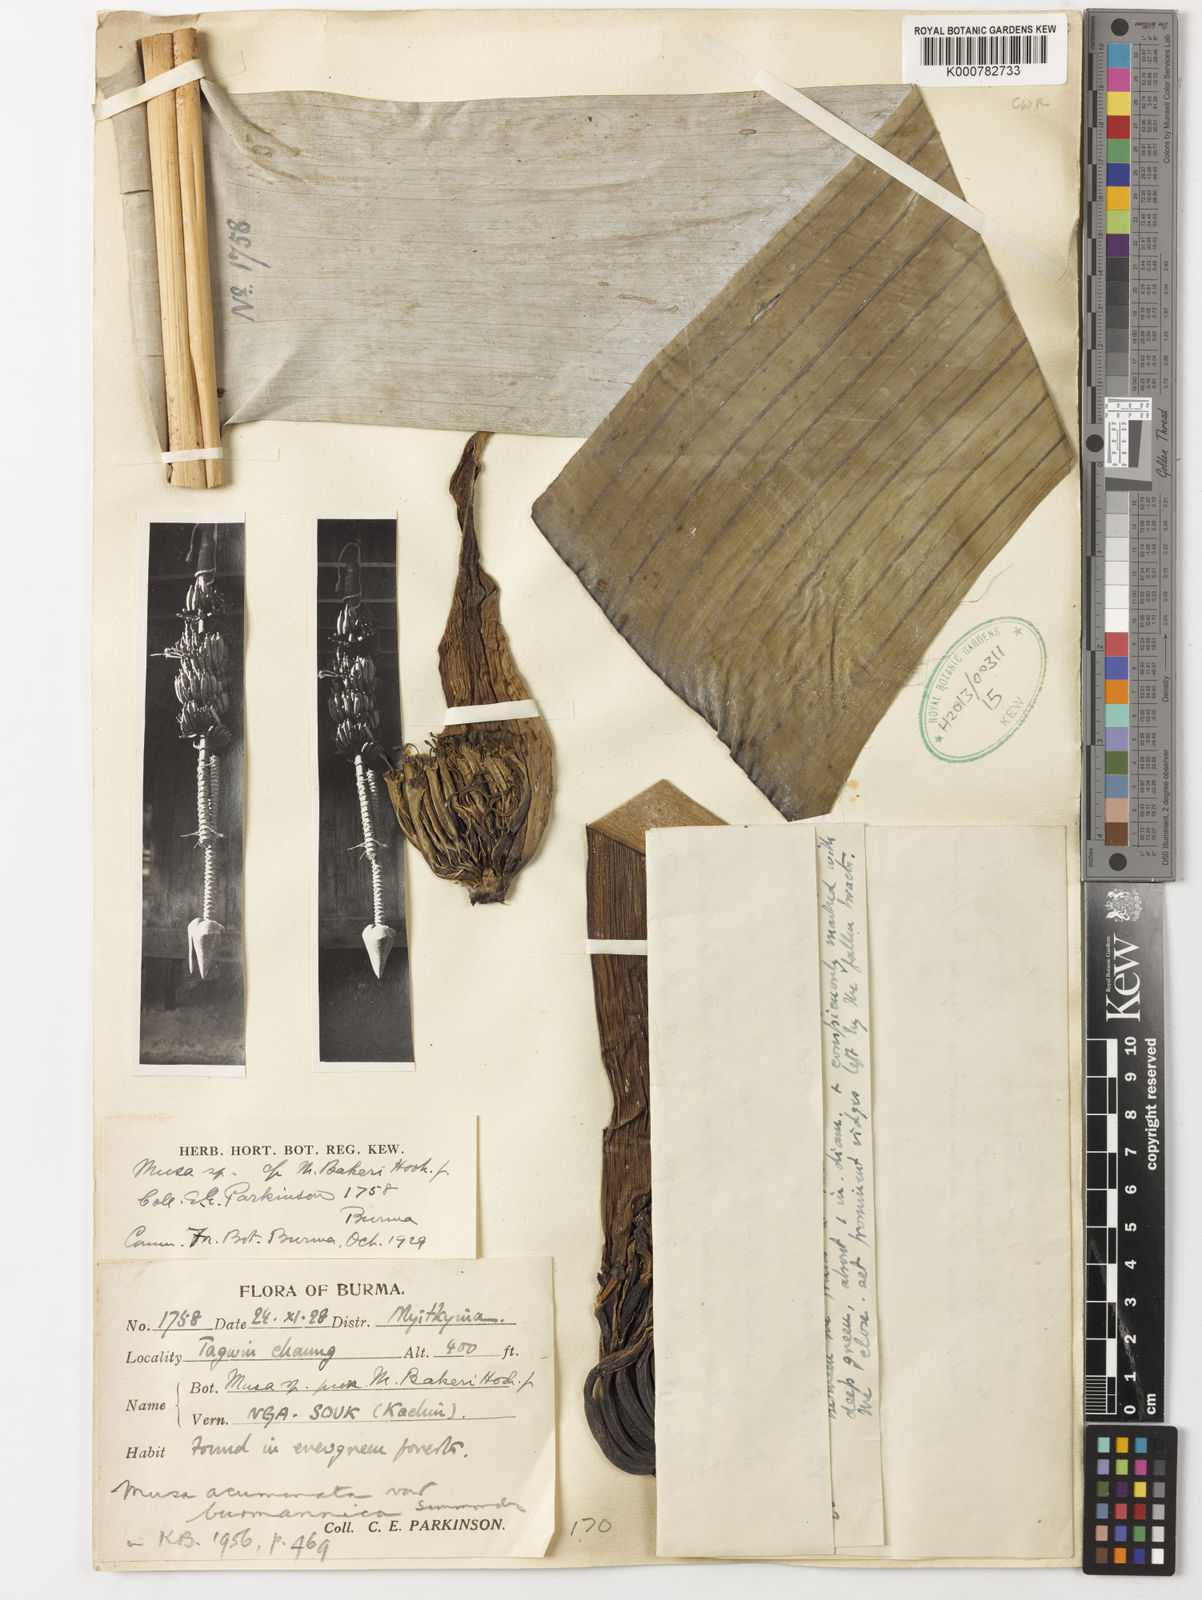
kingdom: Plantae
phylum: Tracheophyta
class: Liliopsida
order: Zingiberales
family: Musaceae
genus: Musa
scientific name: Musa kattuvazhana
